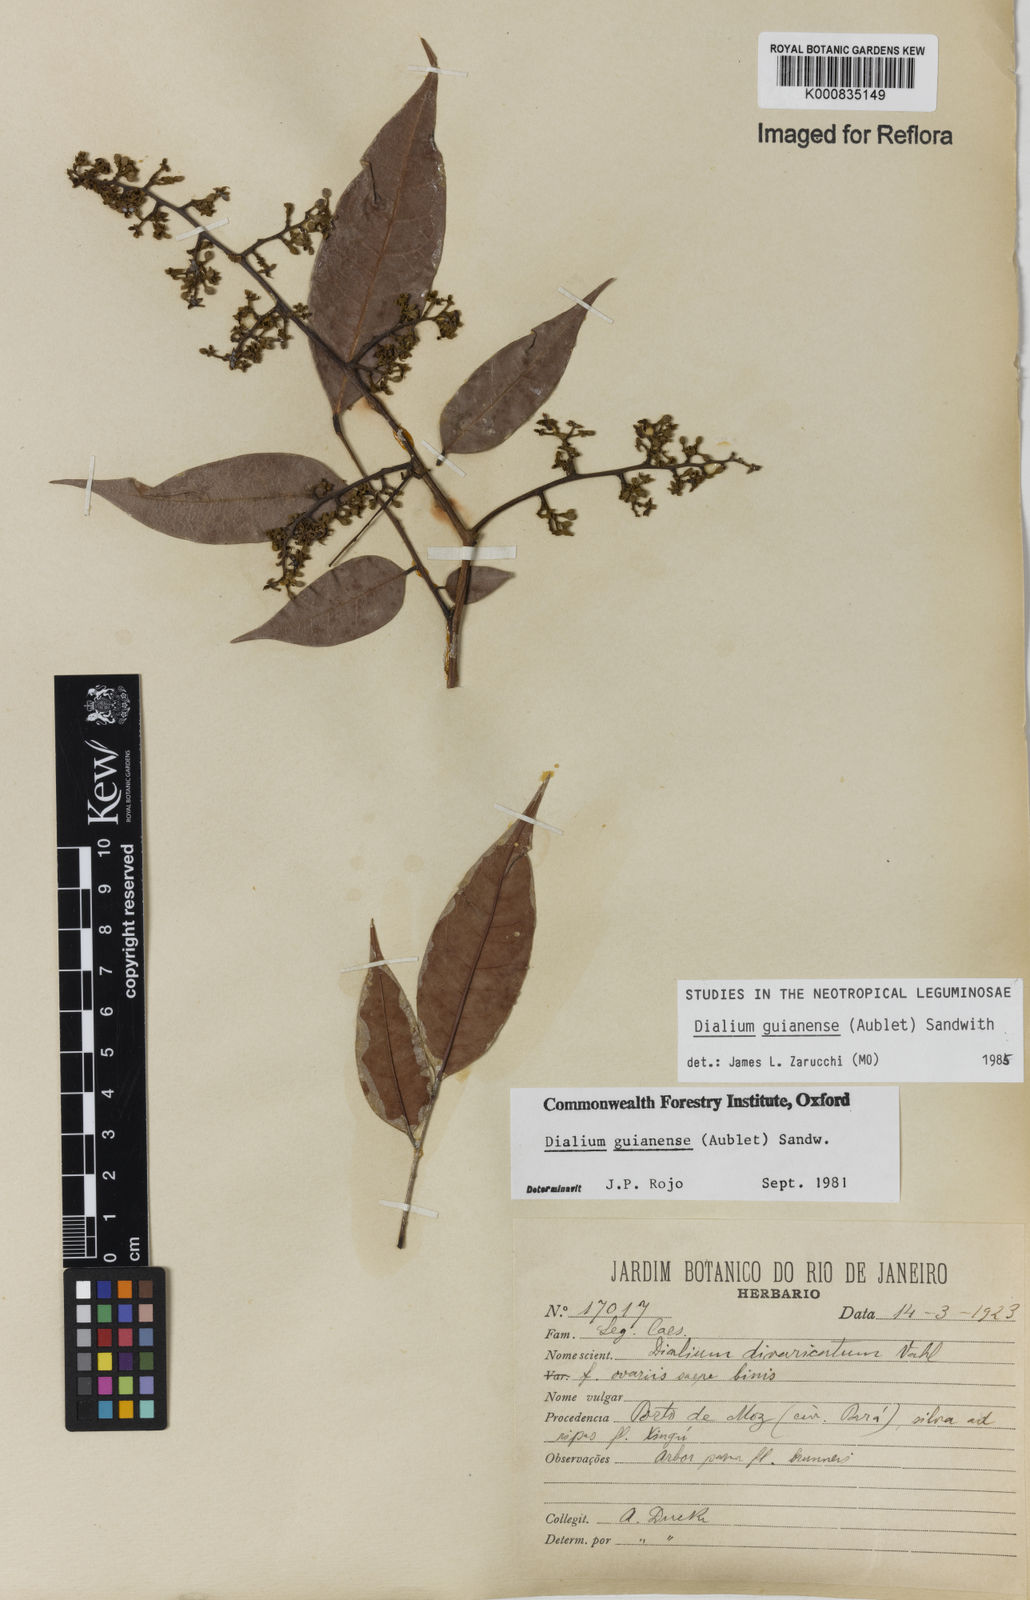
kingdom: Plantae
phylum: Tracheophyta
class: Magnoliopsida
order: Fabales
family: Fabaceae
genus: Dialium
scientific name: Dialium guianense
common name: Ironwood
